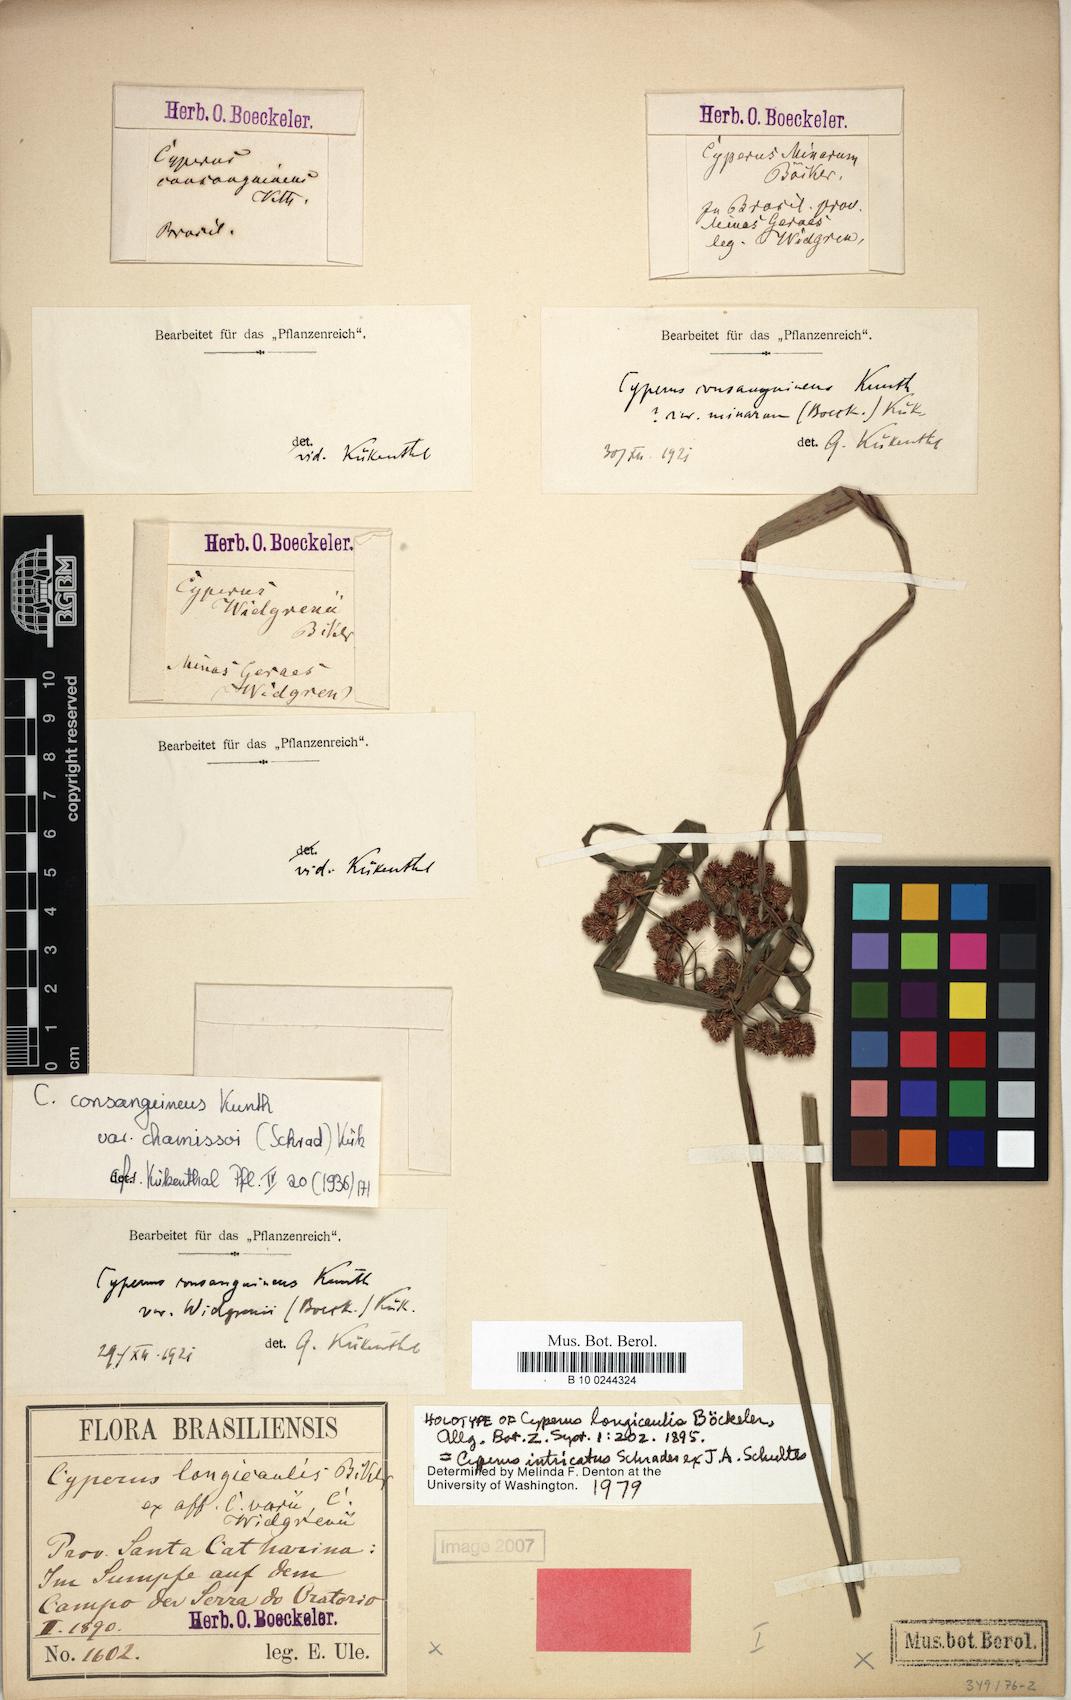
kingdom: Plantae
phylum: Tracheophyta
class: Liliopsida
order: Poales
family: Cyperaceae
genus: Cyperus
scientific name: Cyperus intricatus
